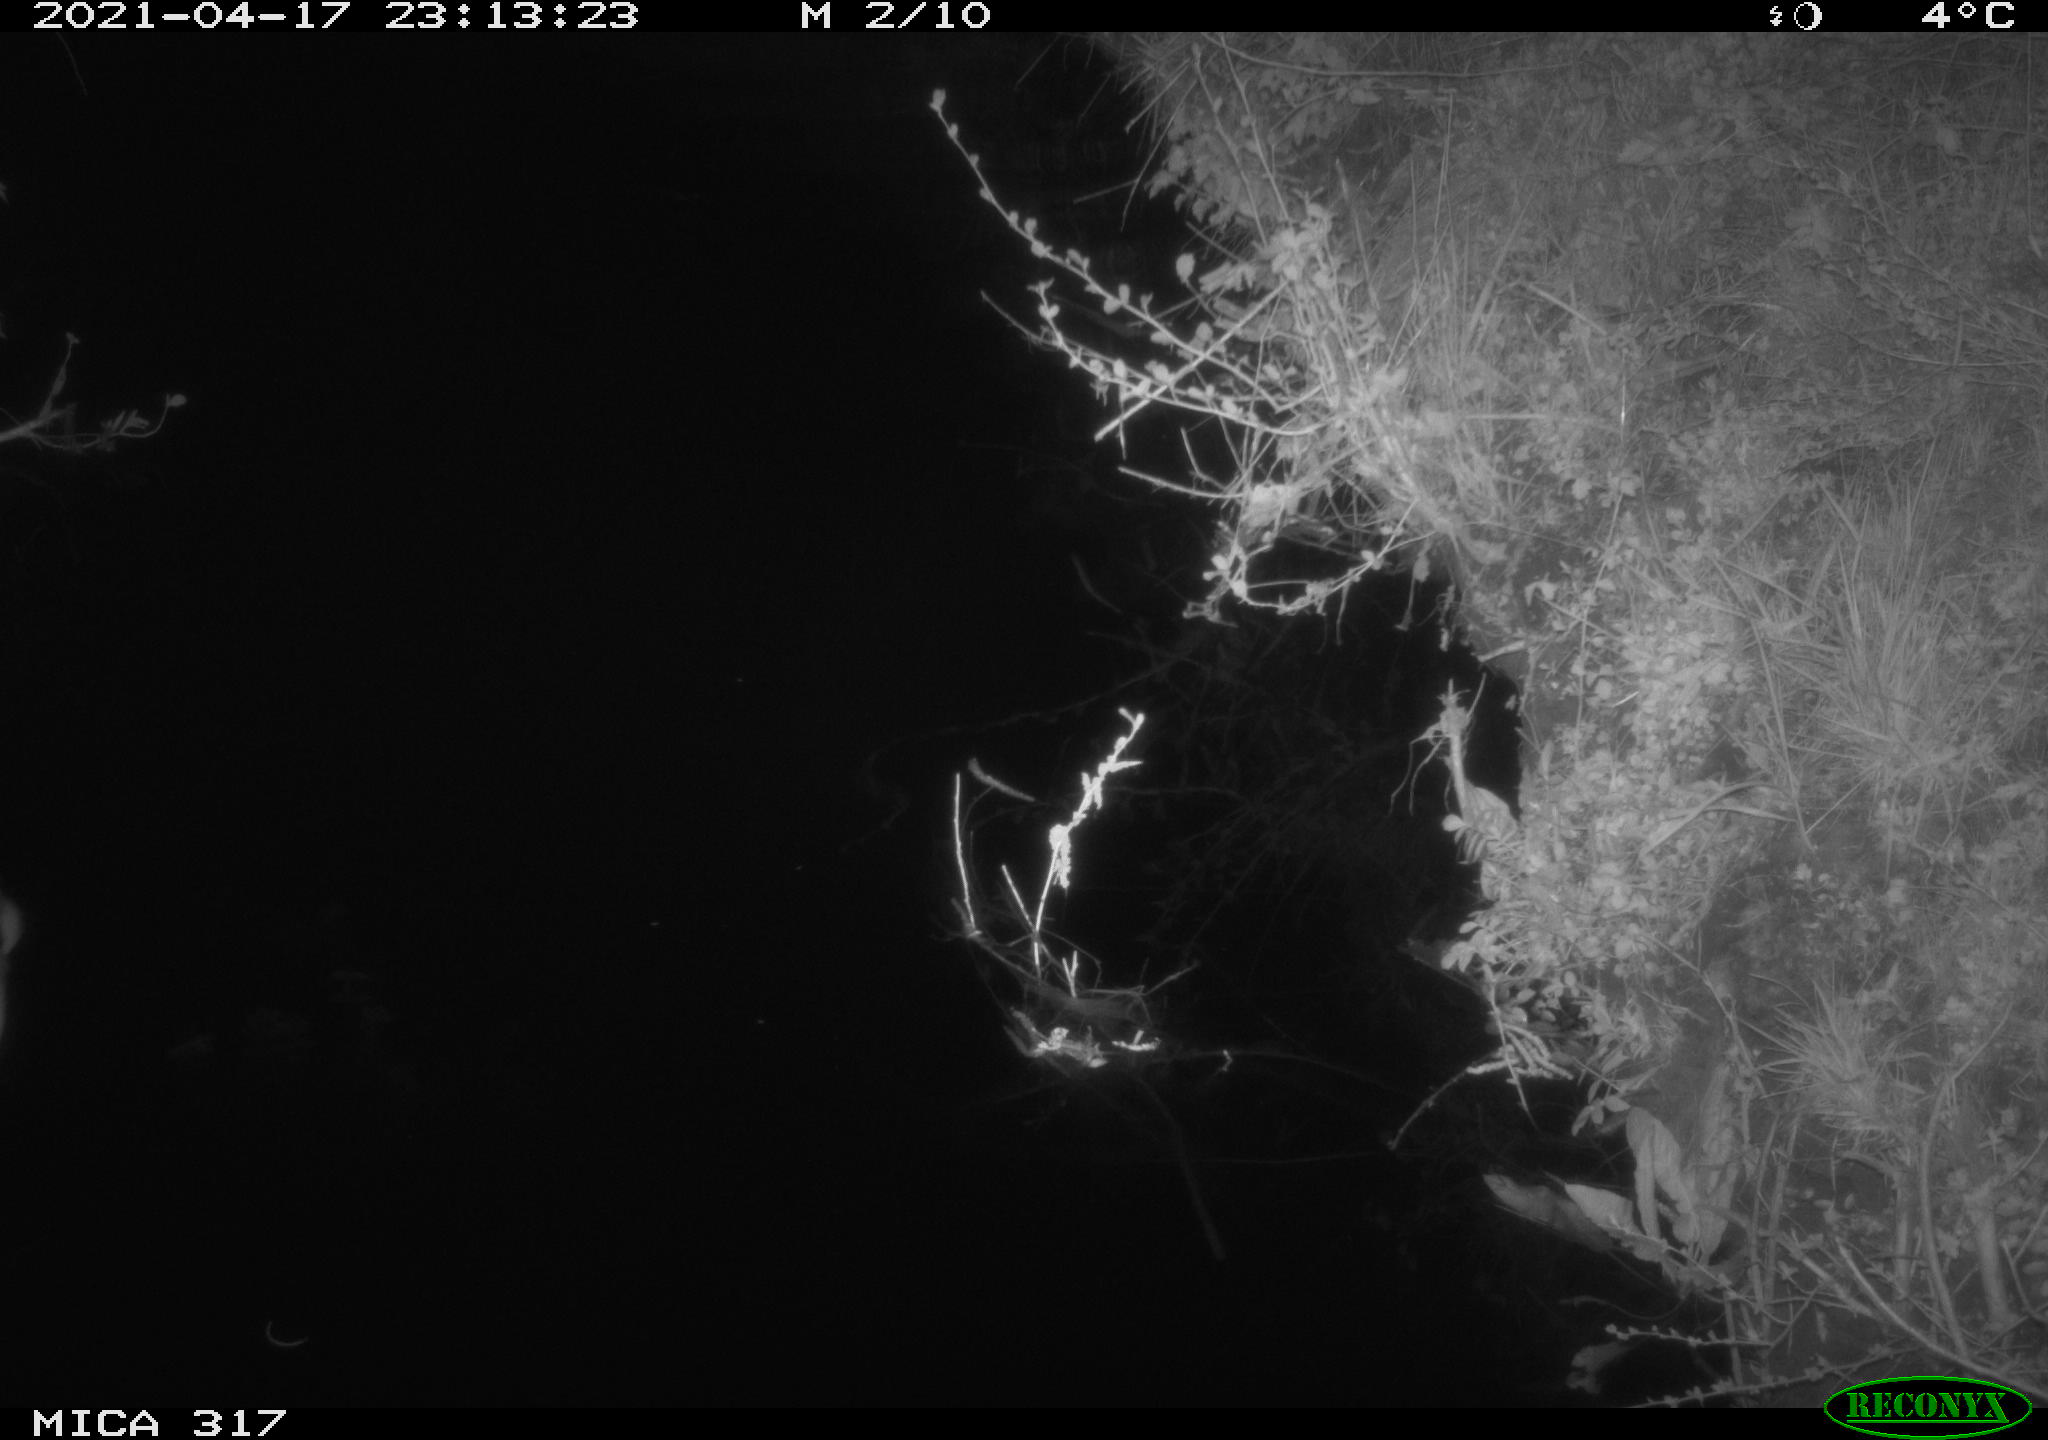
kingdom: Animalia
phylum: Chordata
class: Aves
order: Anseriformes
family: Anatidae
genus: Anas
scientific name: Anas platyrhynchos
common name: Mallard
